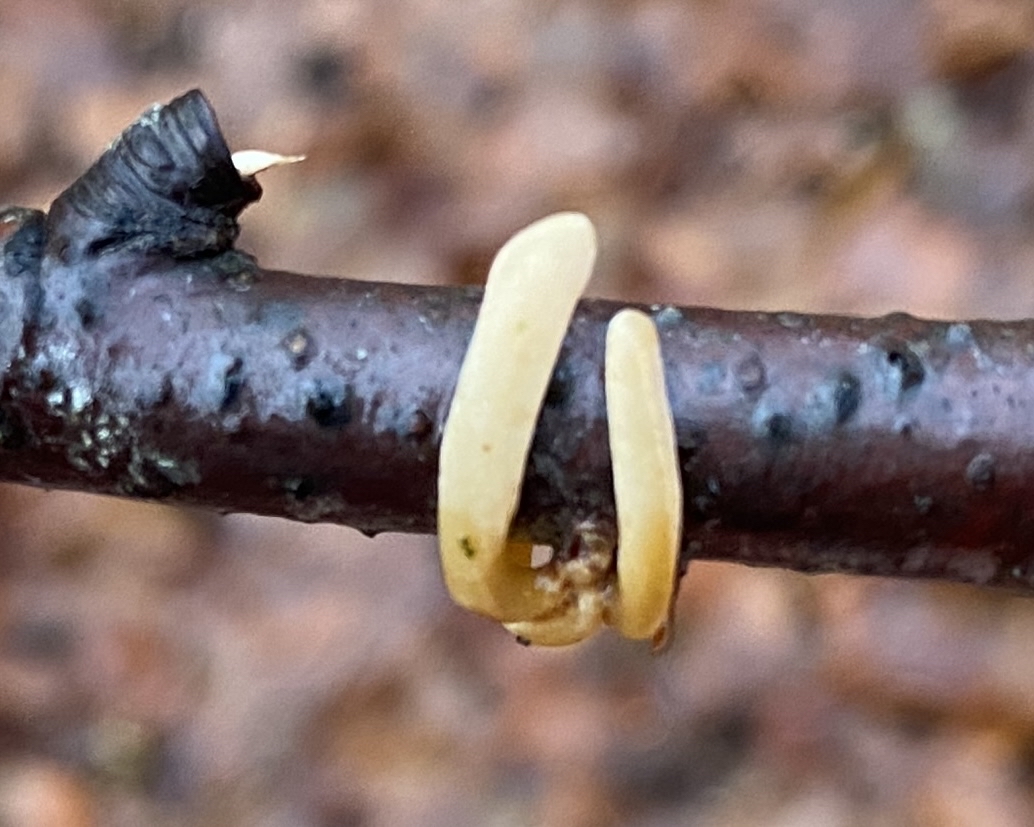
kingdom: Fungi
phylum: Basidiomycota
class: Agaricomycetes
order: Agaricales
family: Typhulaceae
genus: Typhula
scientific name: Typhula contorta
